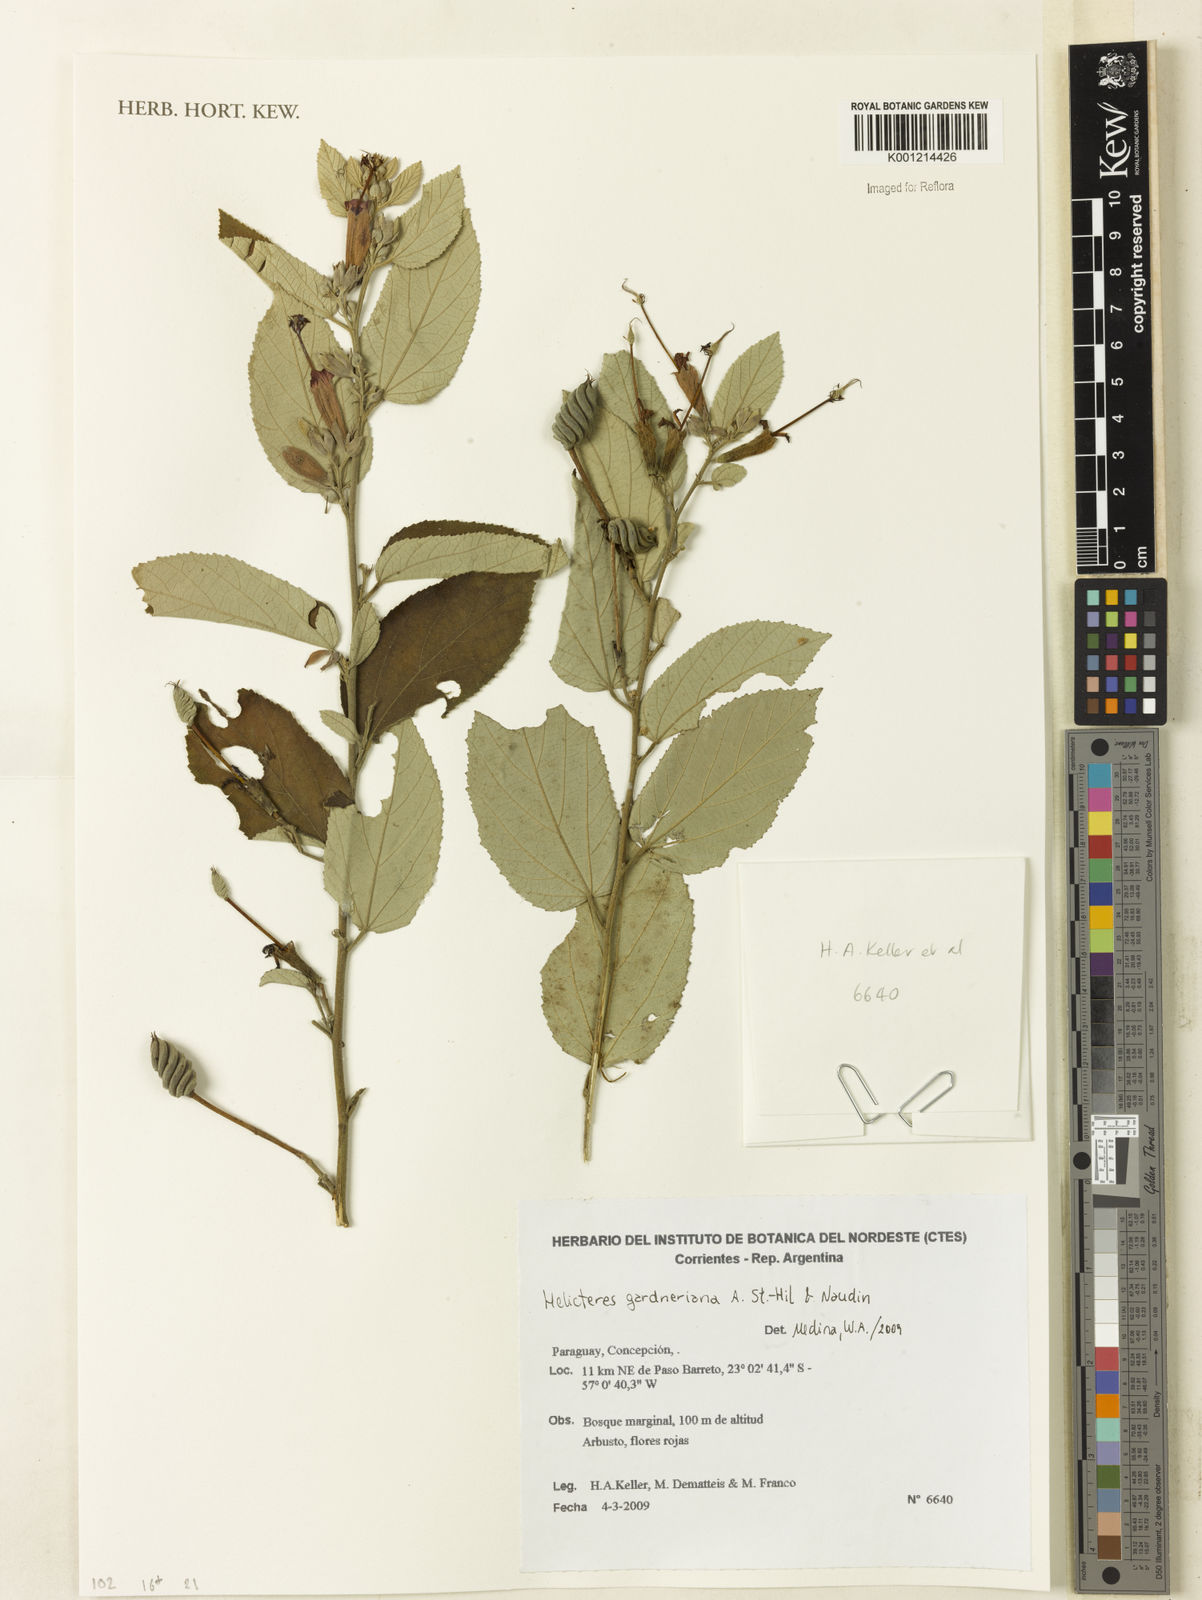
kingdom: Plantae
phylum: Tracheophyta
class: Magnoliopsida
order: Malvales
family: Malvaceae
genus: Helicteres
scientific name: Helicteres gardneriana
